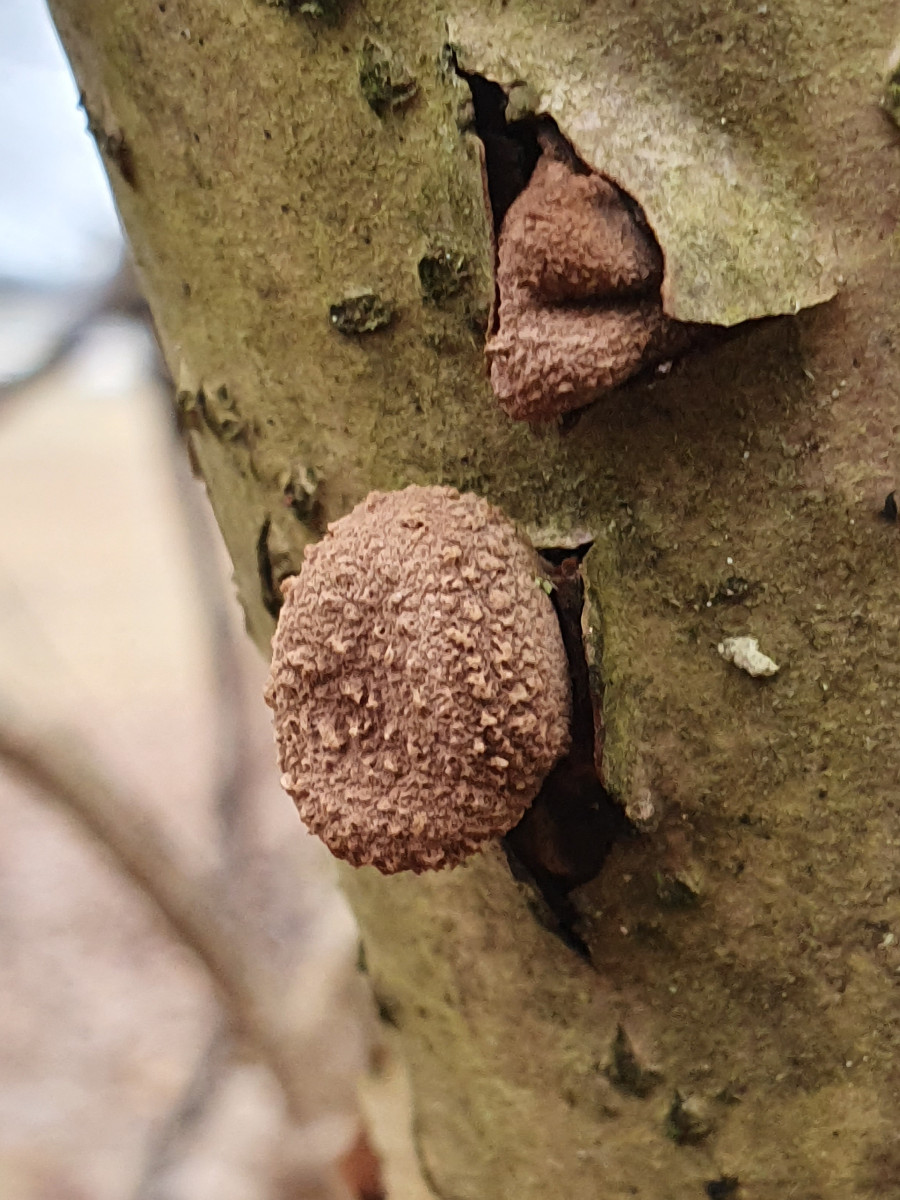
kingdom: Fungi
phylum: Ascomycota
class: Leotiomycetes
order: Helotiales
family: Cenangiaceae
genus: Encoelia
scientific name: Encoelia furfuracea
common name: hassel-læderskive
